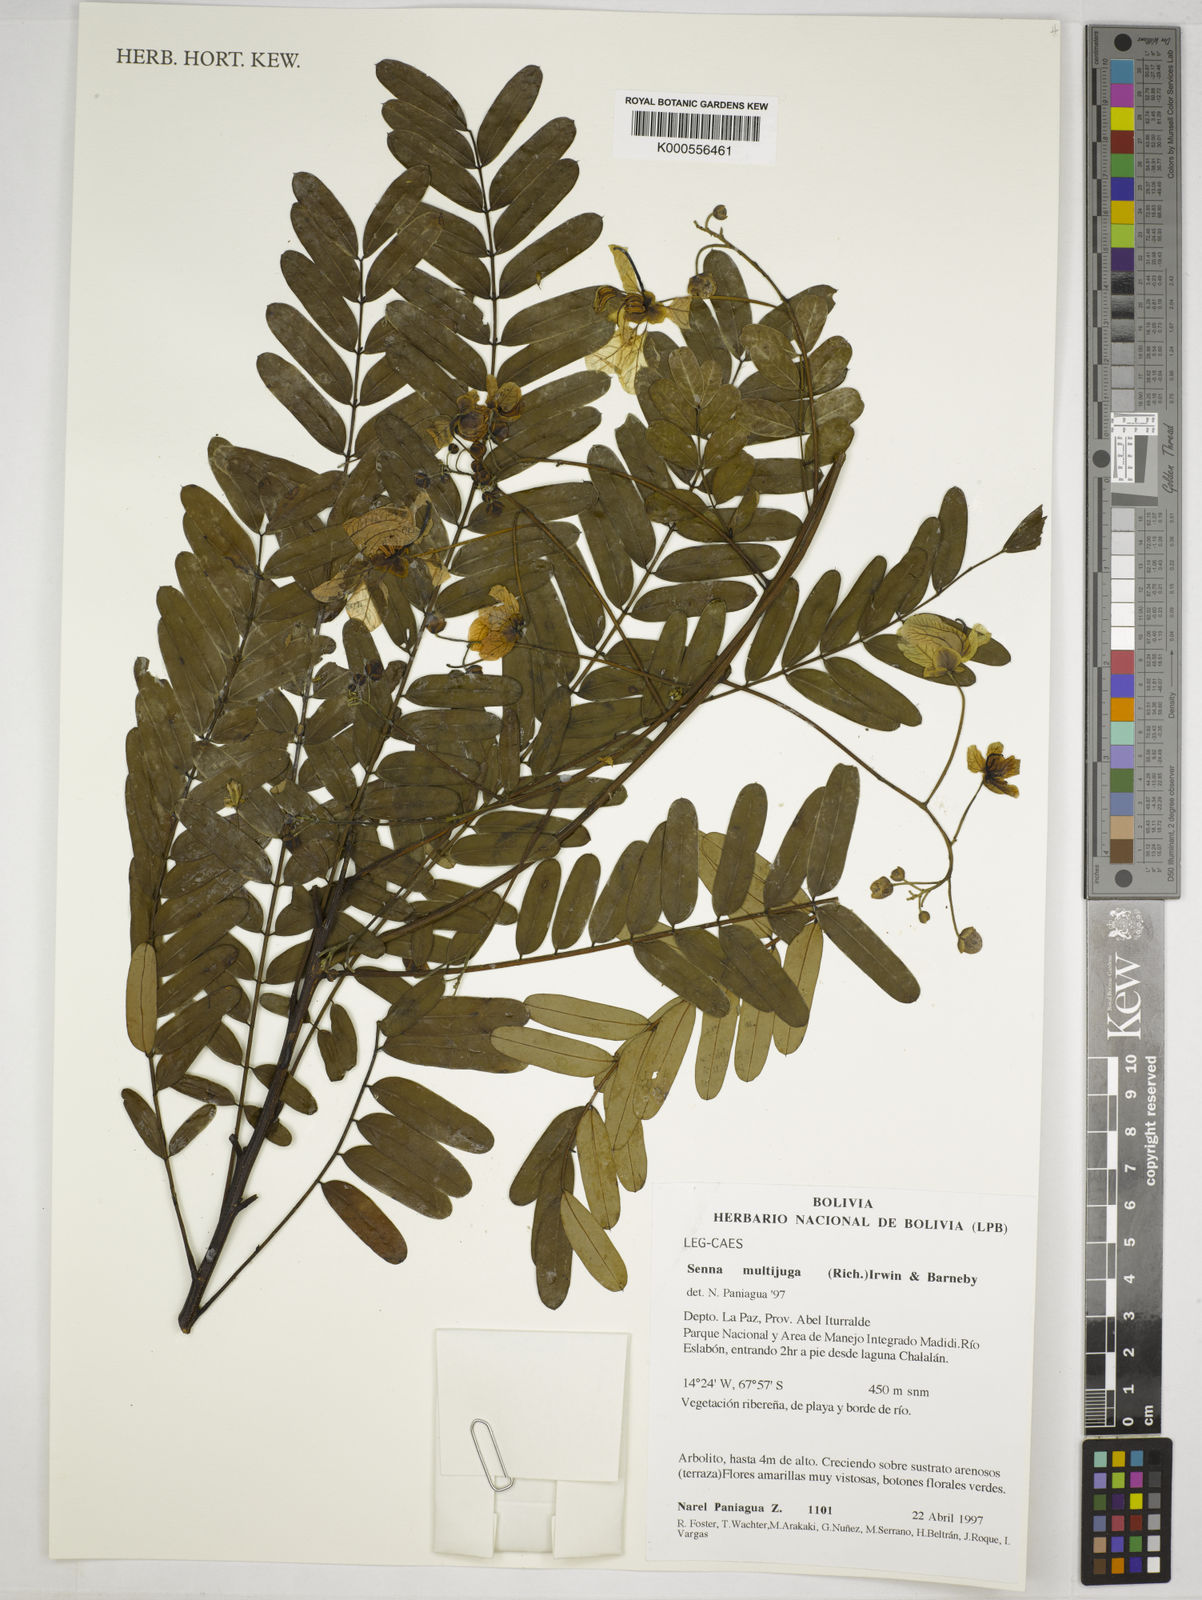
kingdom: Plantae
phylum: Tracheophyta
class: Magnoliopsida
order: Fabales
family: Fabaceae
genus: Senna
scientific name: Senna multijuga
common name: False sicklepod
